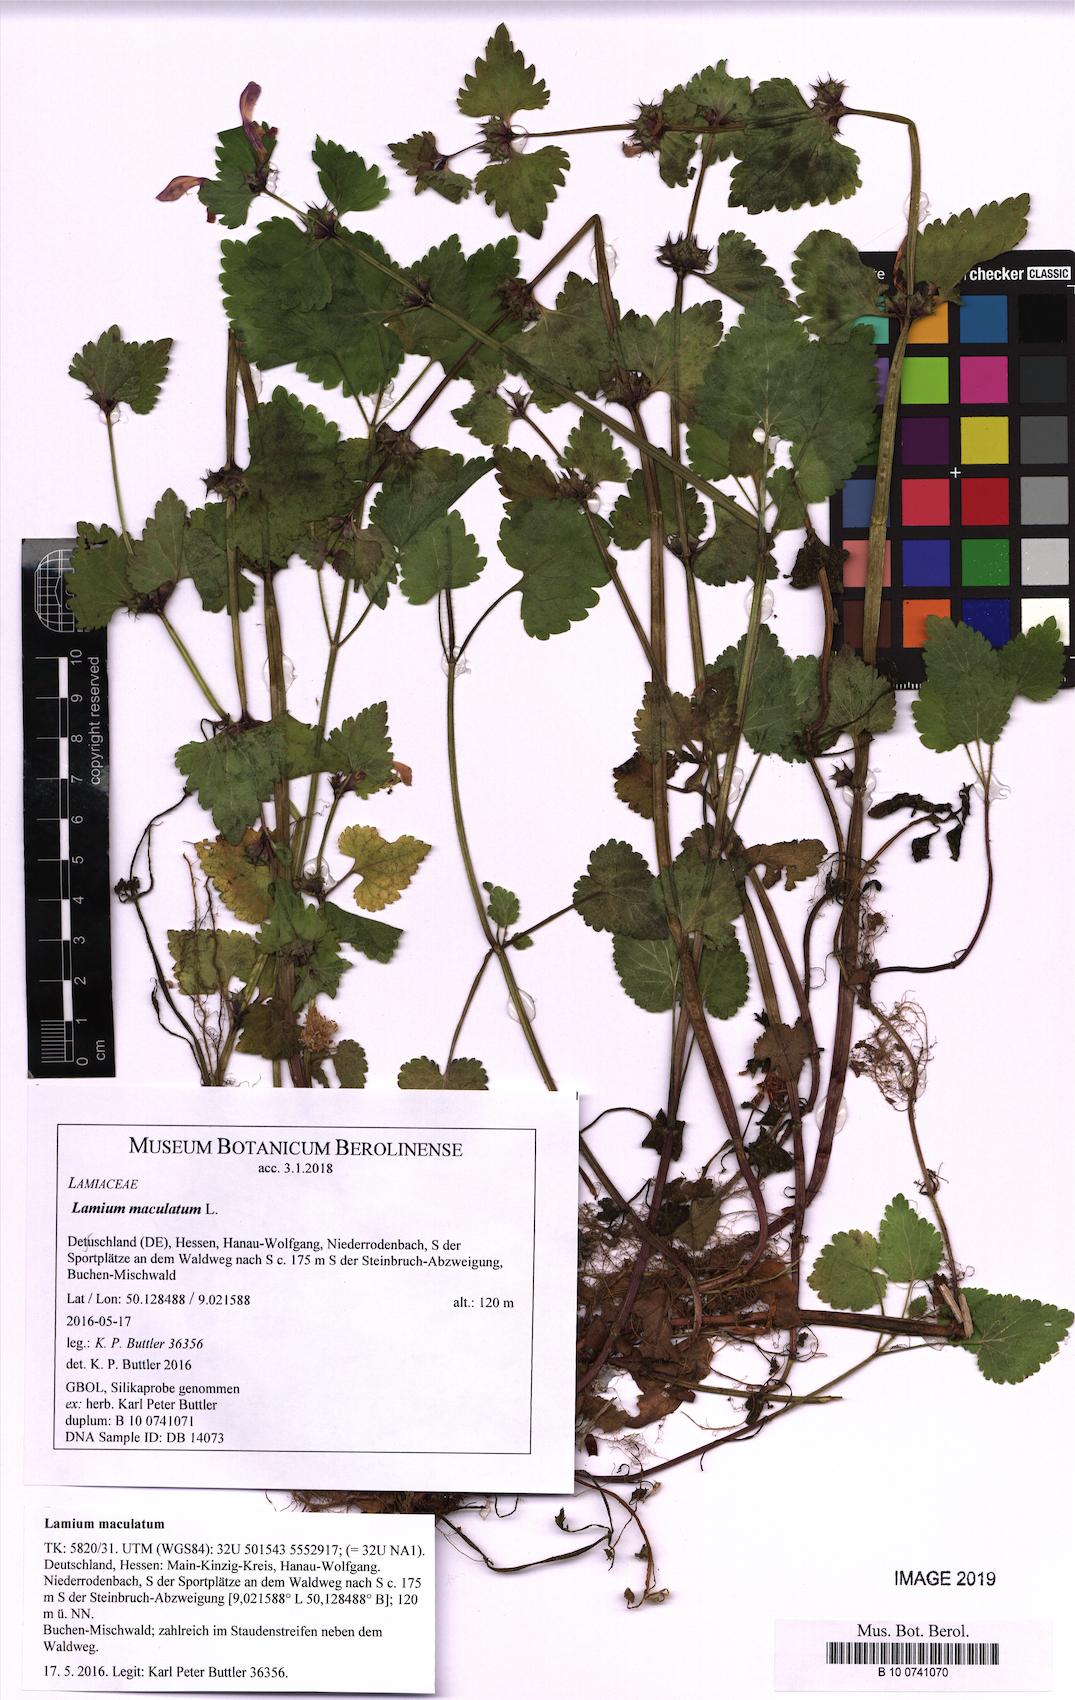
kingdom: Plantae
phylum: Tracheophyta
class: Magnoliopsida
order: Lamiales
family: Lamiaceae
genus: Lamium
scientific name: Lamium maculatum
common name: Spotted dead-nettle
